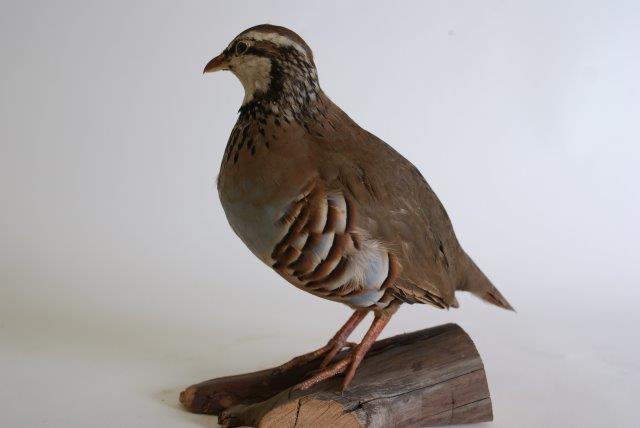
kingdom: Animalia
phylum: Chordata
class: Aves
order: Galliformes
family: Phasianidae
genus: Alectoris
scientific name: Alectoris rufa
